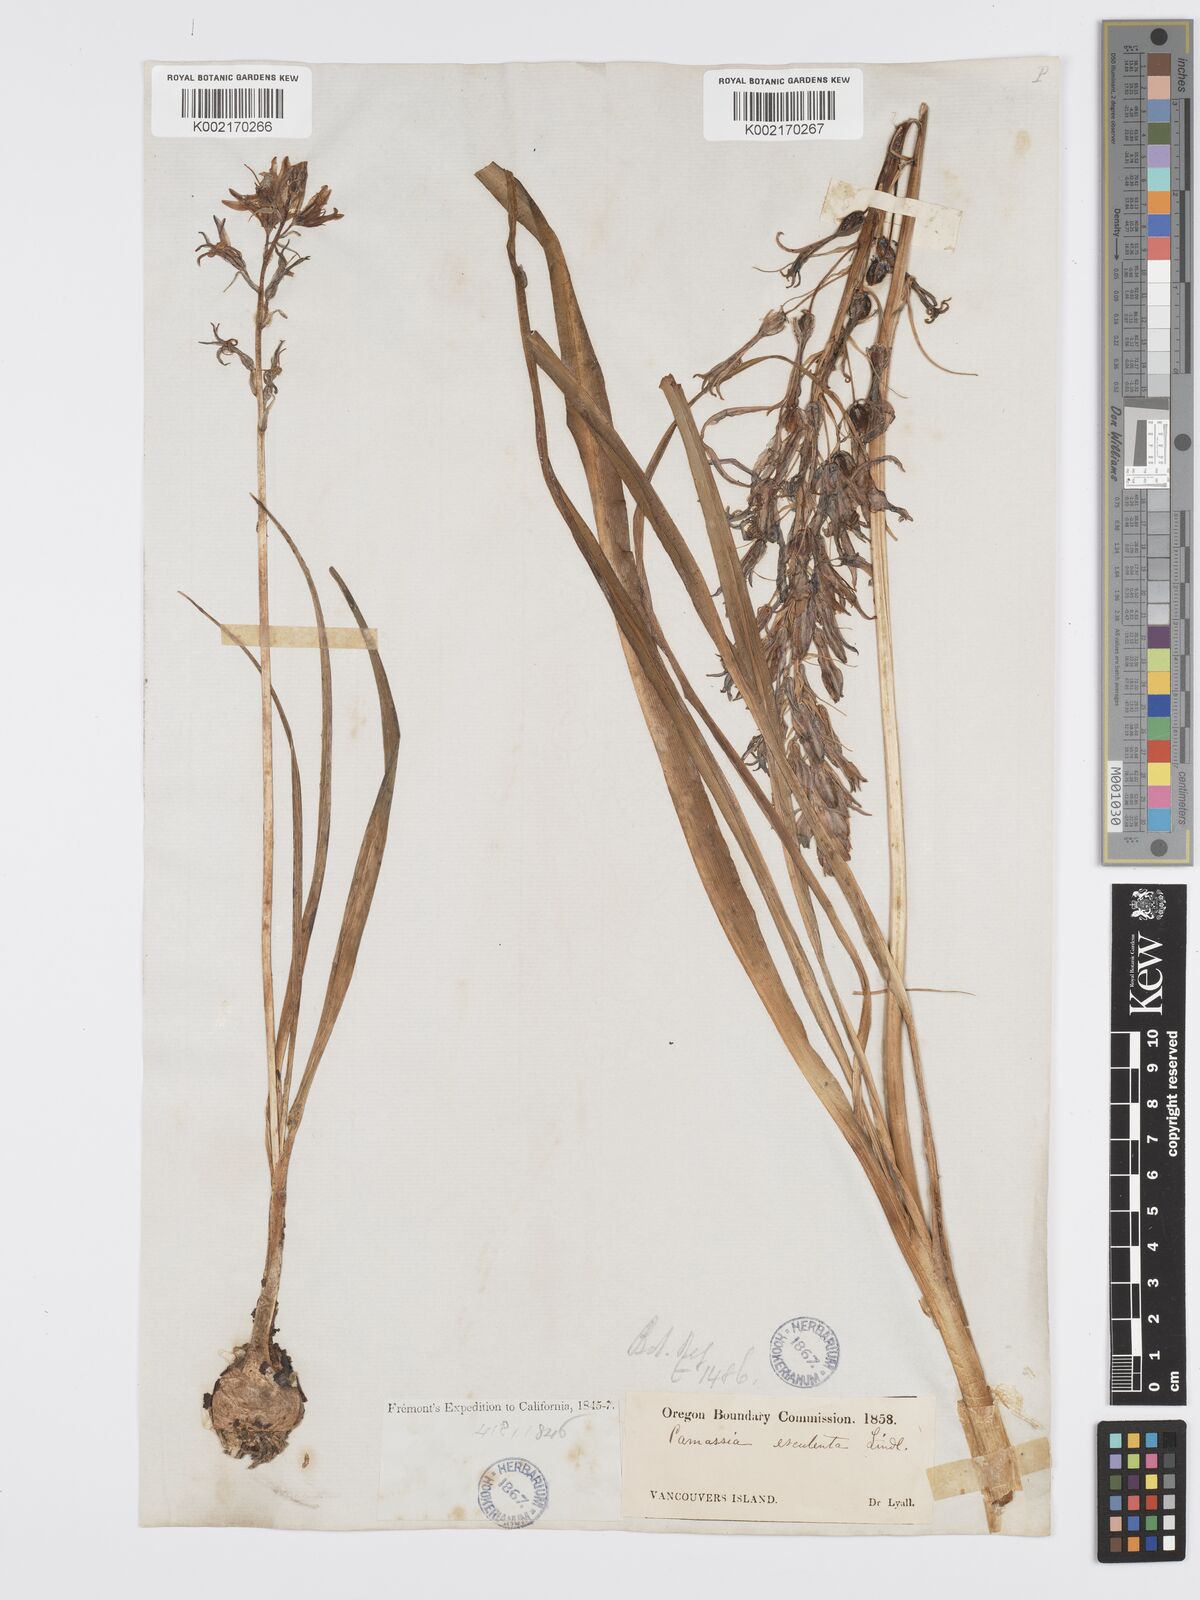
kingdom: Plantae
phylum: Tracheophyta
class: Liliopsida
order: Asparagales
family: Asparagaceae
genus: Camassia
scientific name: Camassia leichtlinii
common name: Leichtlin's camas
